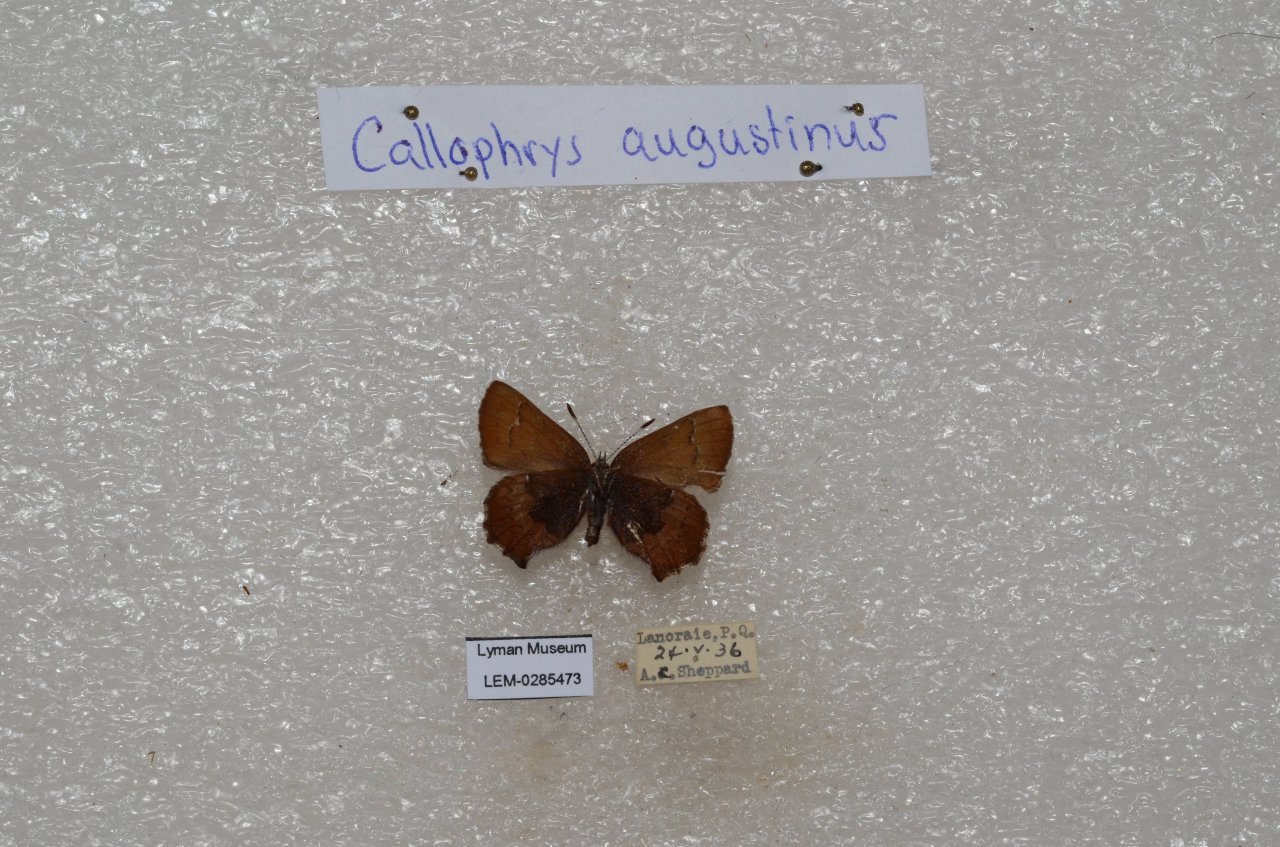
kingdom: Animalia
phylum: Arthropoda
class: Insecta
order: Lepidoptera
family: Lycaenidae
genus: Incisalia
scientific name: Incisalia irioides
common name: Brown Elfin
